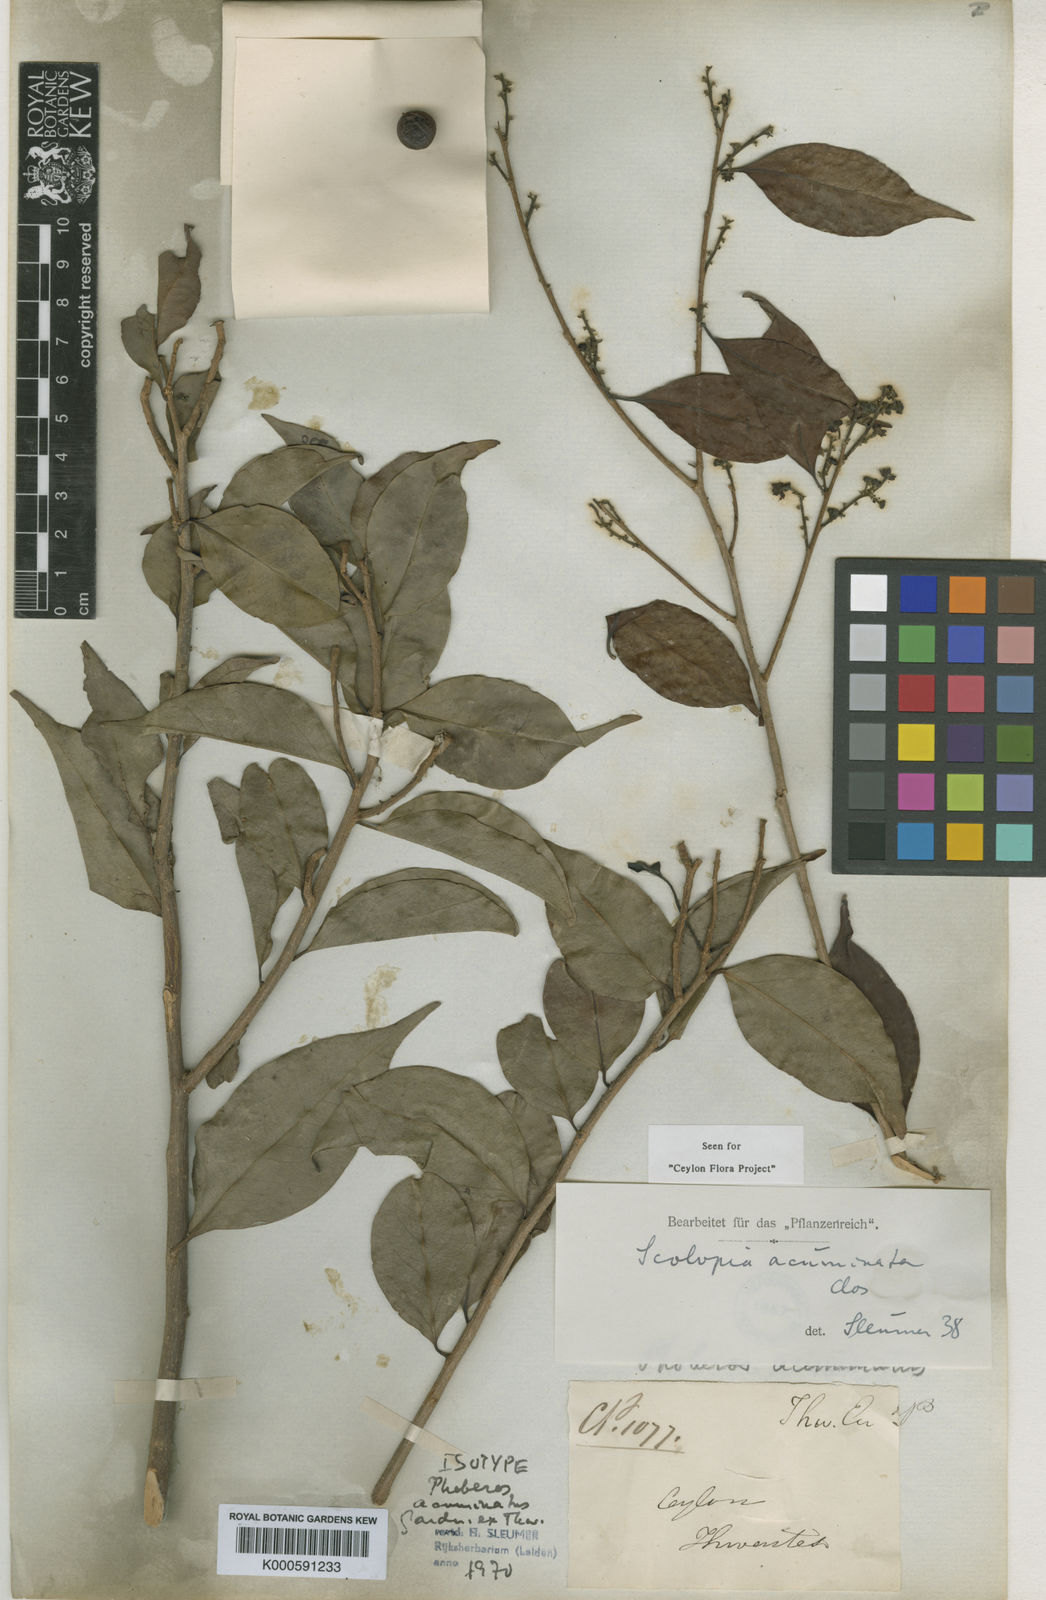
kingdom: Plantae
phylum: Tracheophyta
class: Magnoliopsida
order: Malpighiales
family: Salicaceae
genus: Scolopia
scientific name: Scolopia acuminata
